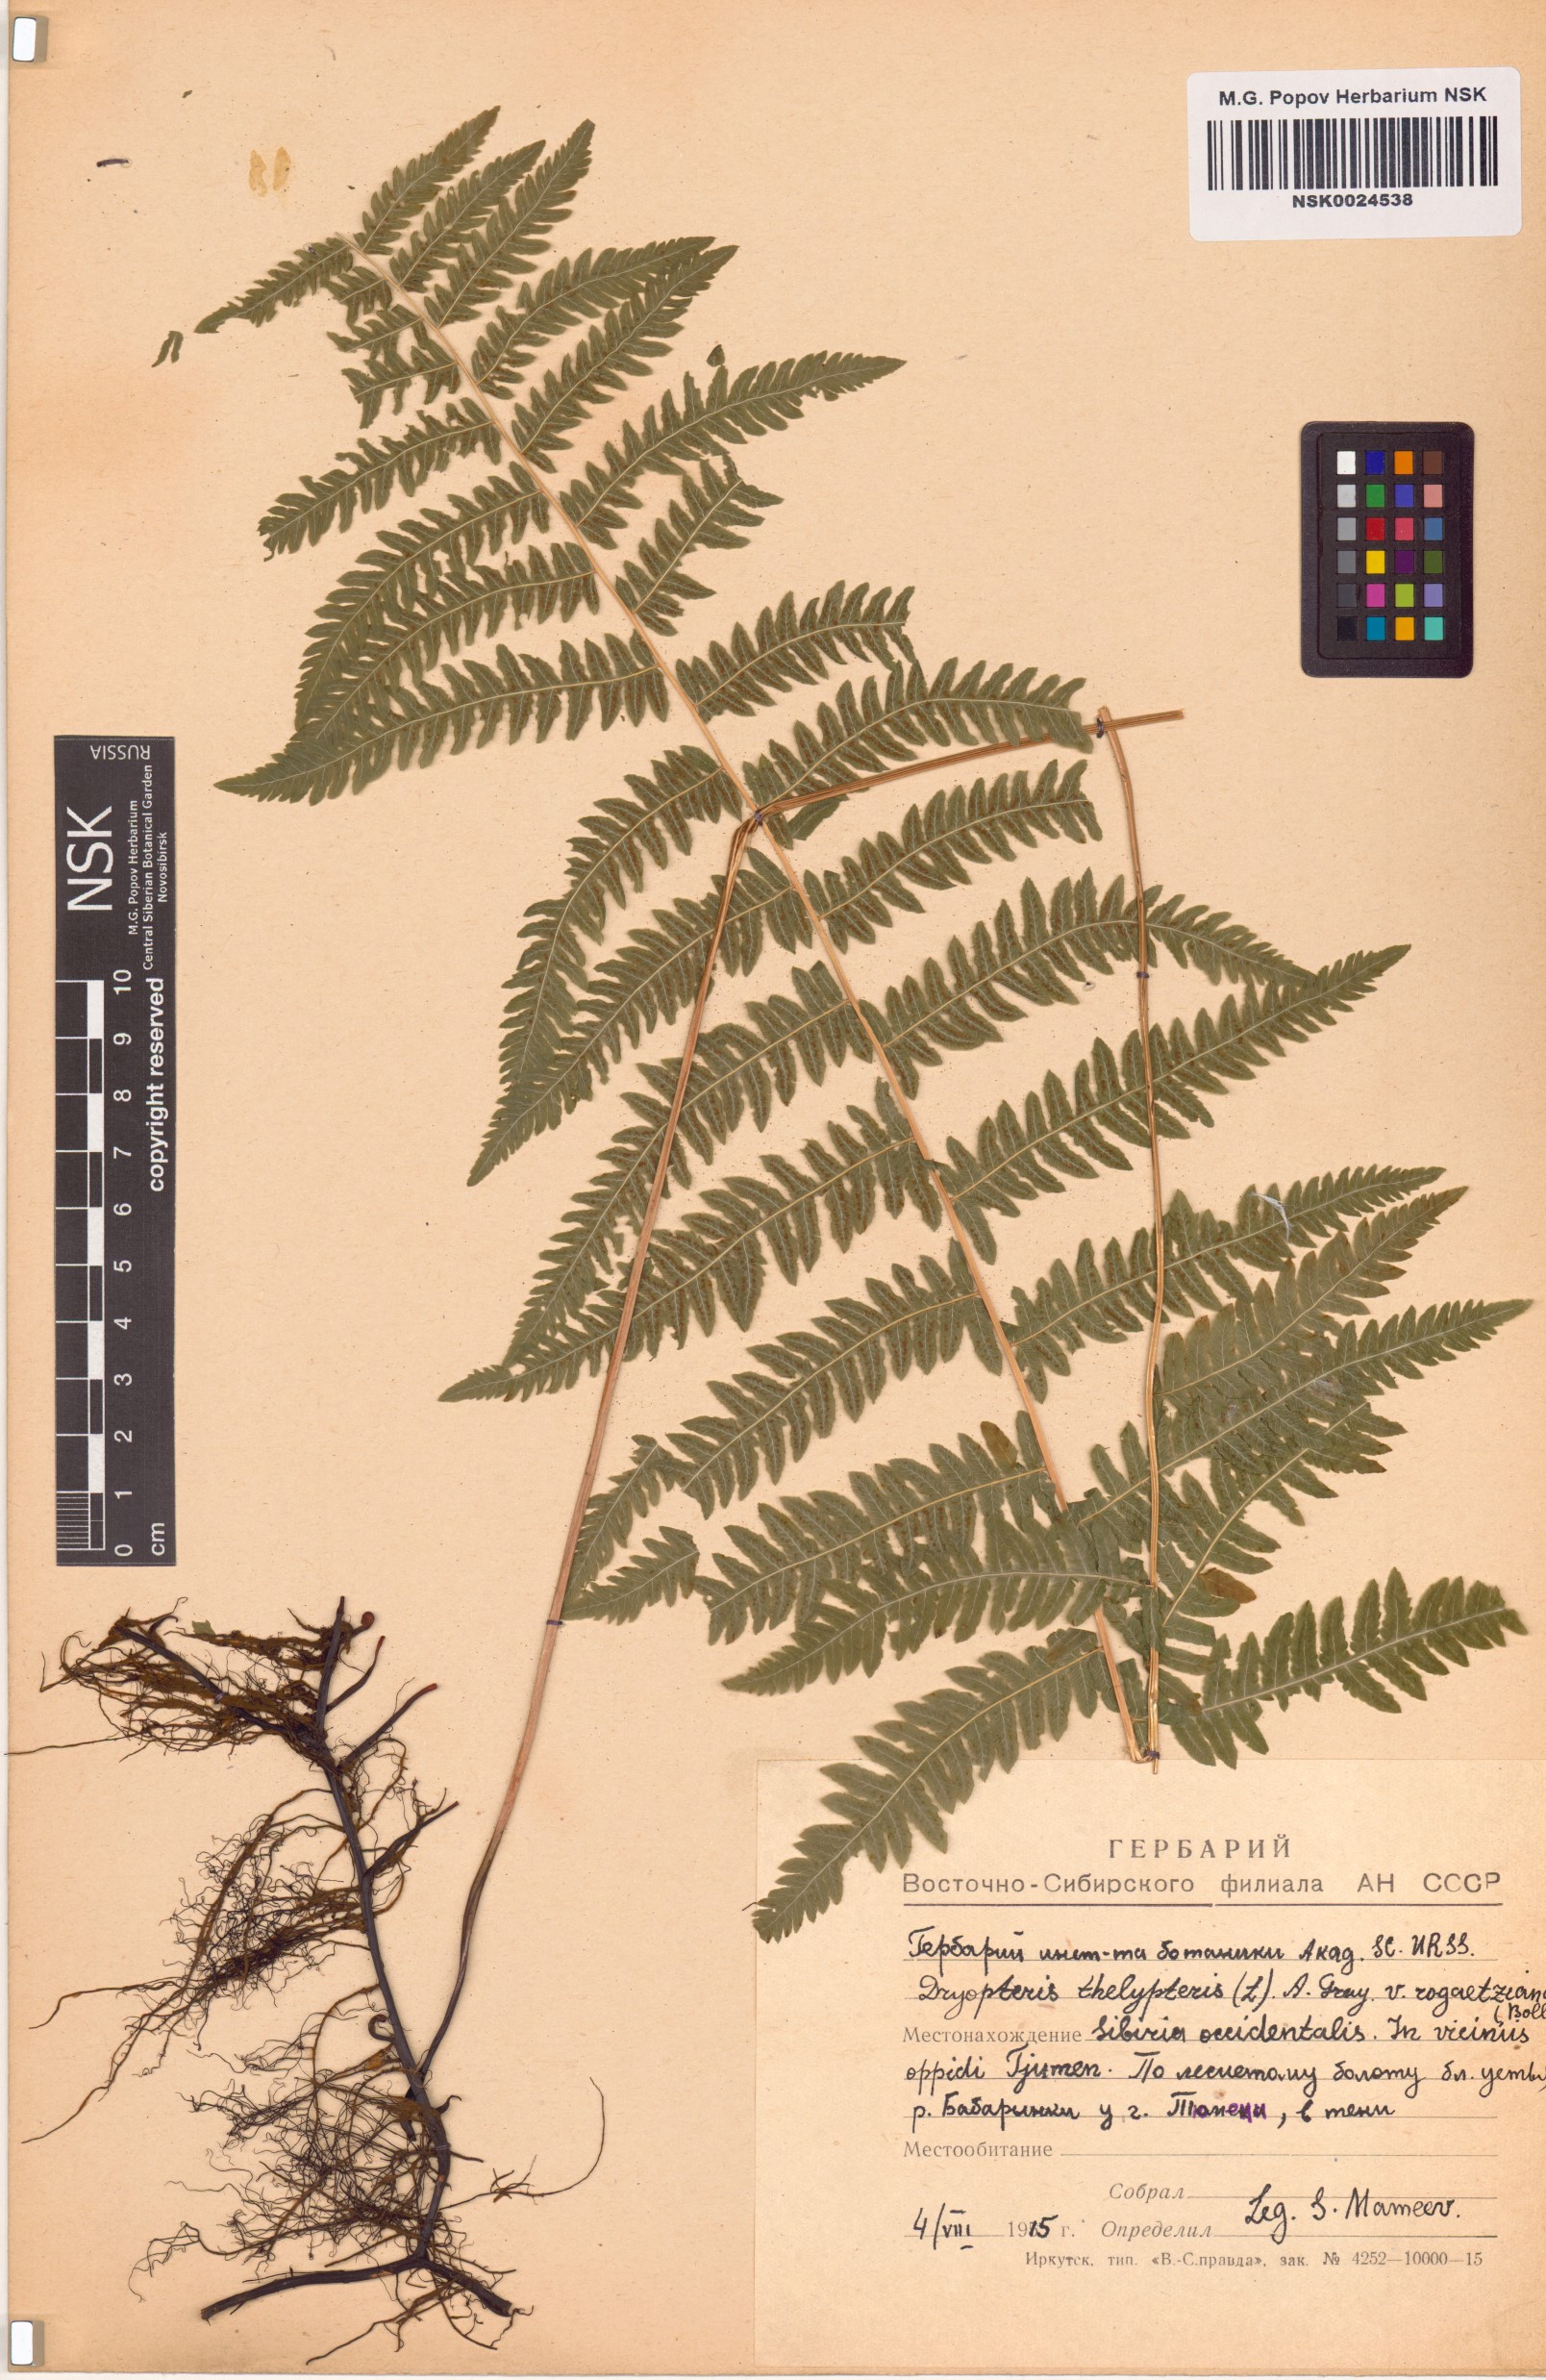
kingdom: Plantae
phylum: Tracheophyta
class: Polypodiopsida
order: Polypodiales
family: Thelypteridaceae
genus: Thelypteris
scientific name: Thelypteris palustris
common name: Marsh fern
